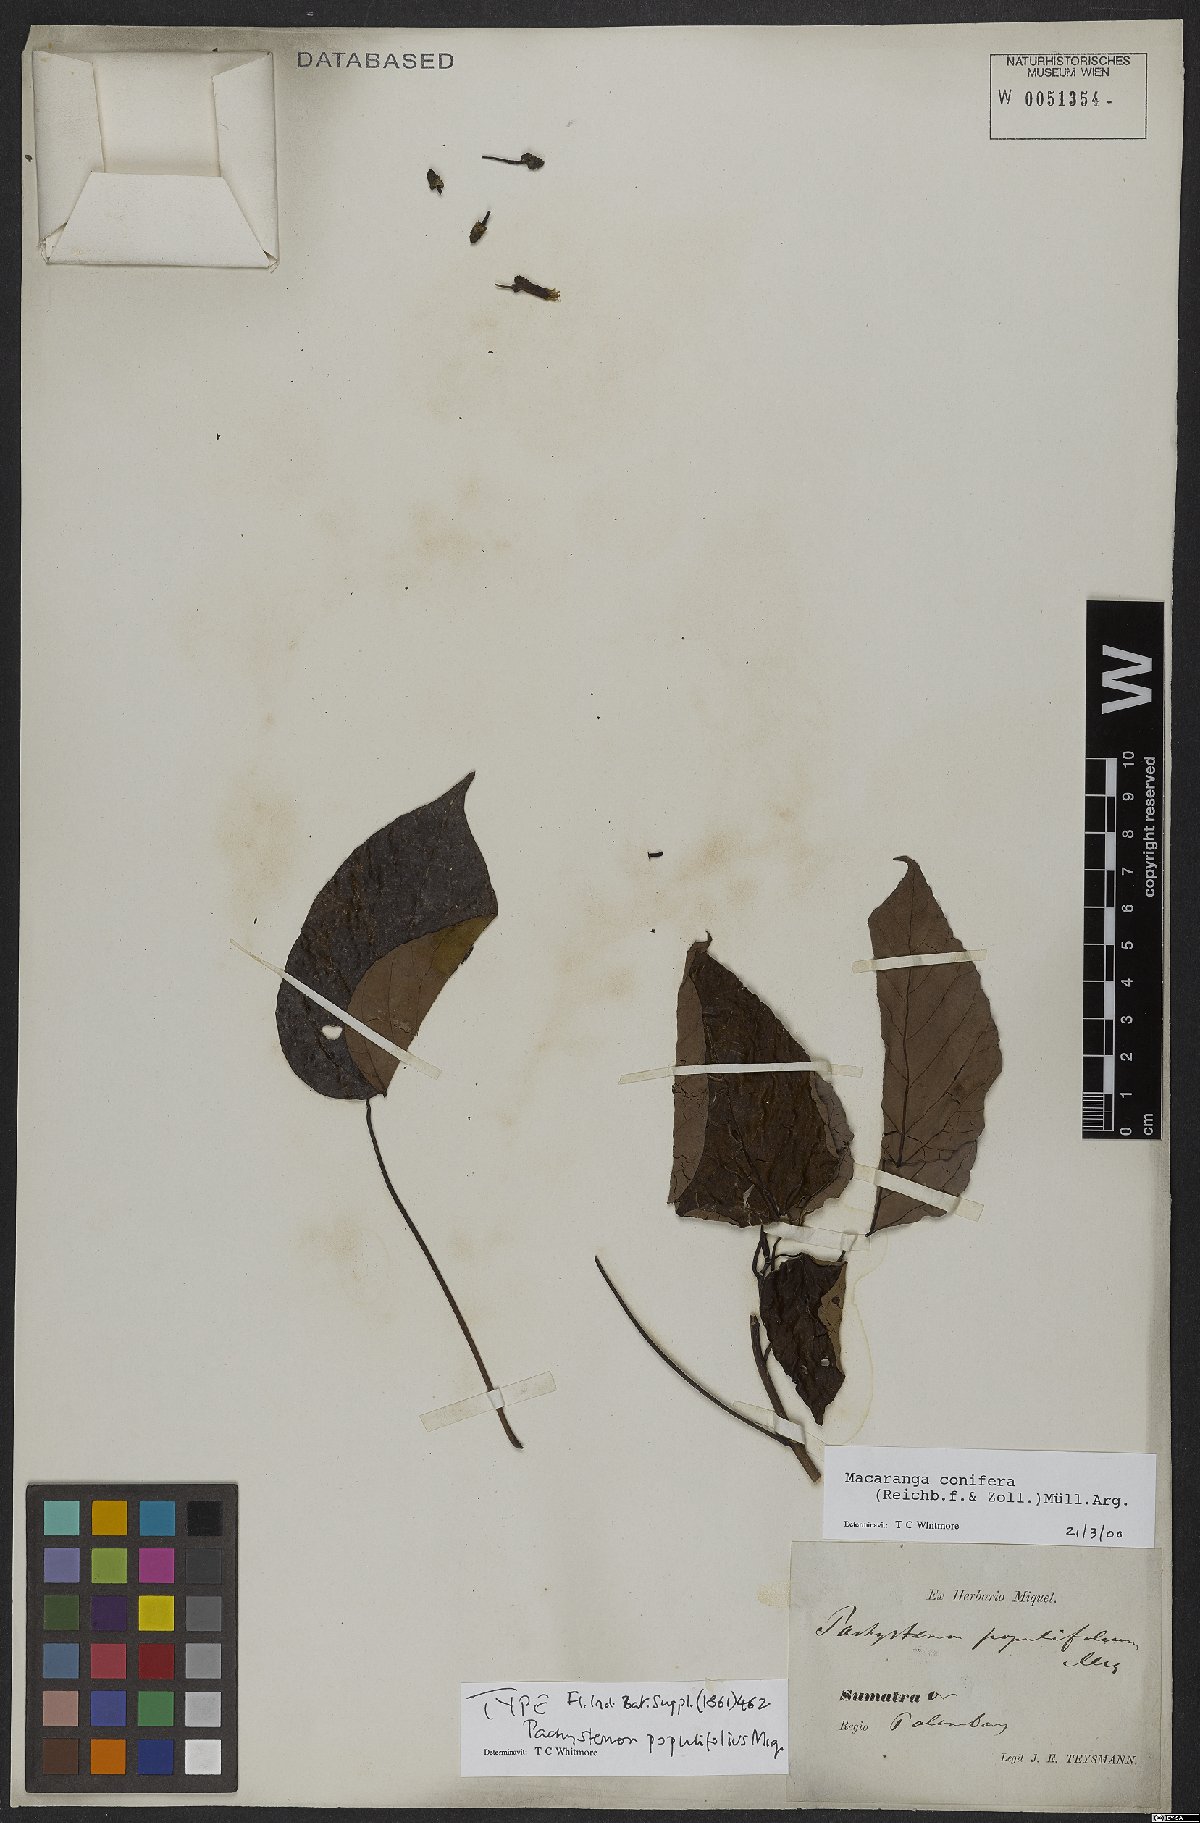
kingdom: Plantae
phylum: Tracheophyta
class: Magnoliopsida
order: Malpighiales
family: Euphorbiaceae
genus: Macaranga
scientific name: Macaranga conifera
